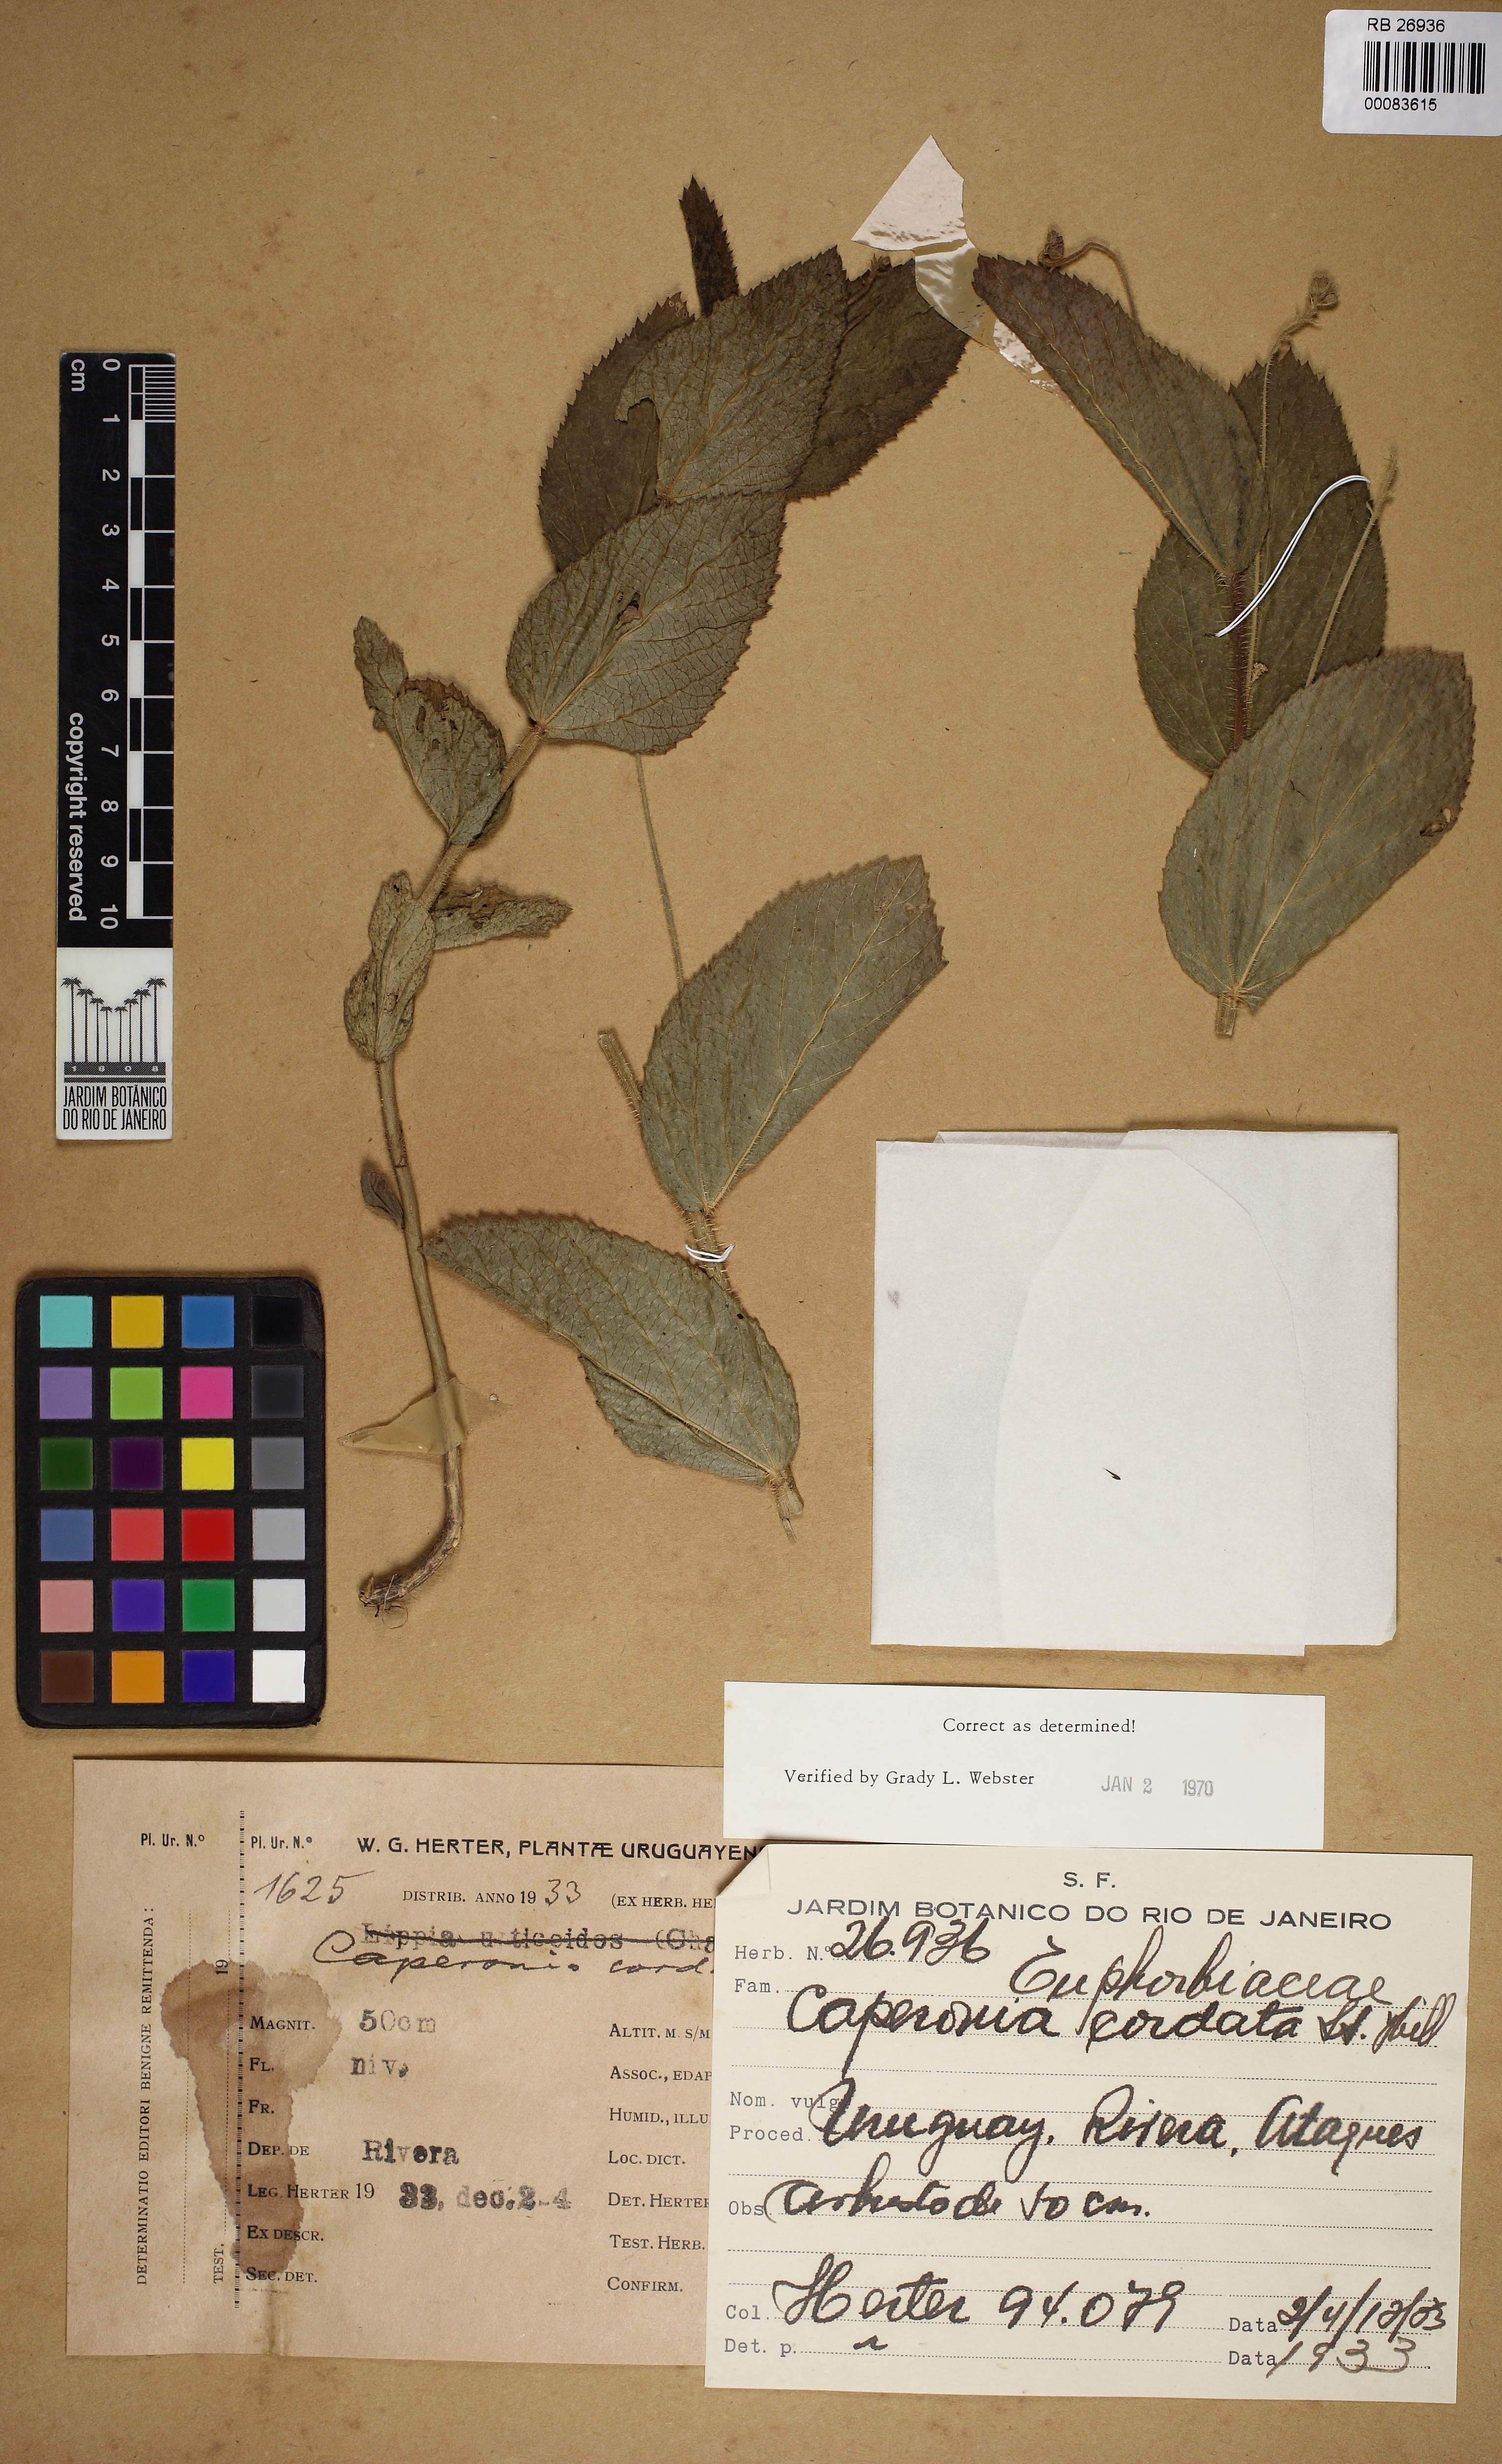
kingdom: Plantae
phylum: Tracheophyta
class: Magnoliopsida
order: Malpighiales
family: Euphorbiaceae
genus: Caperonia
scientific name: Caperonia cordata
